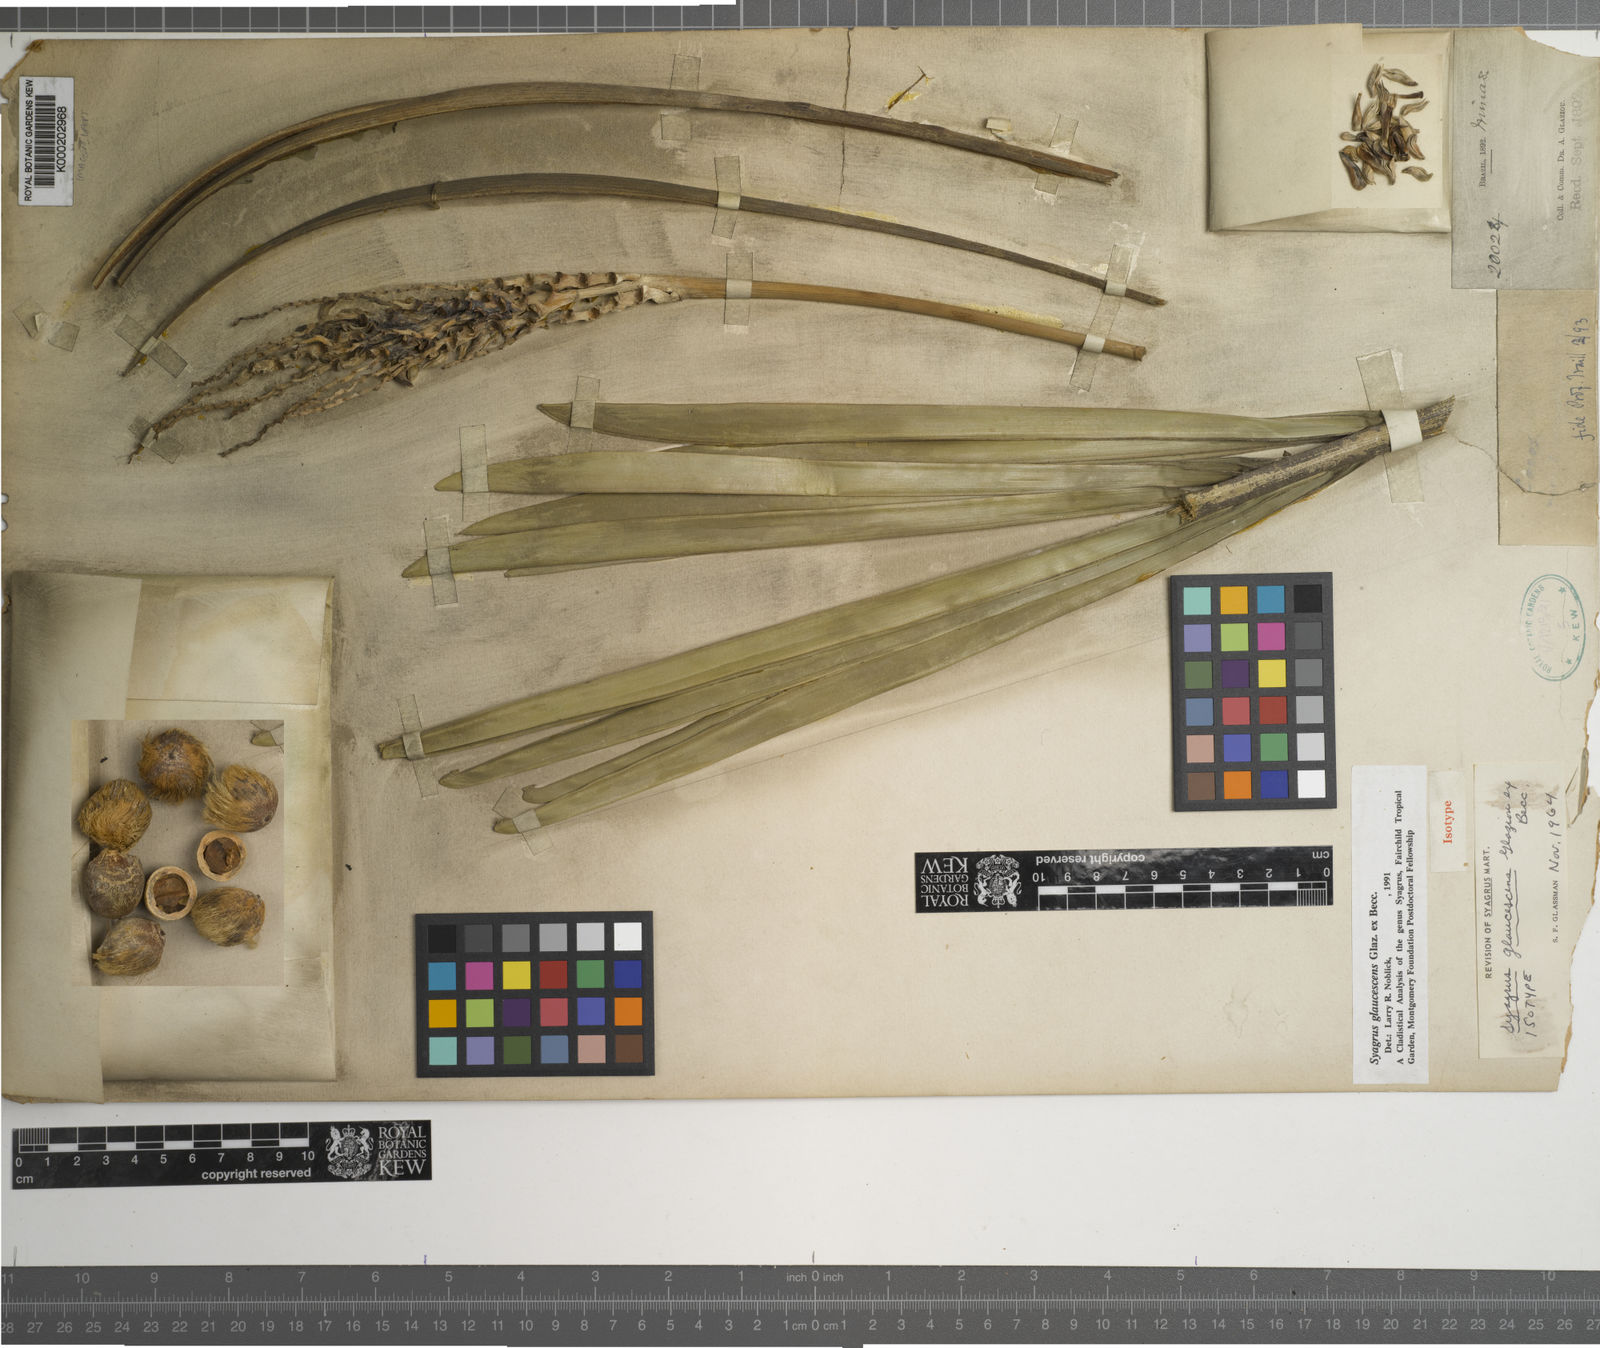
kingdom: Plantae
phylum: Tracheophyta
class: Liliopsida
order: Arecales
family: Arecaceae
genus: Syagrus
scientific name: Syagrus glaucescens
